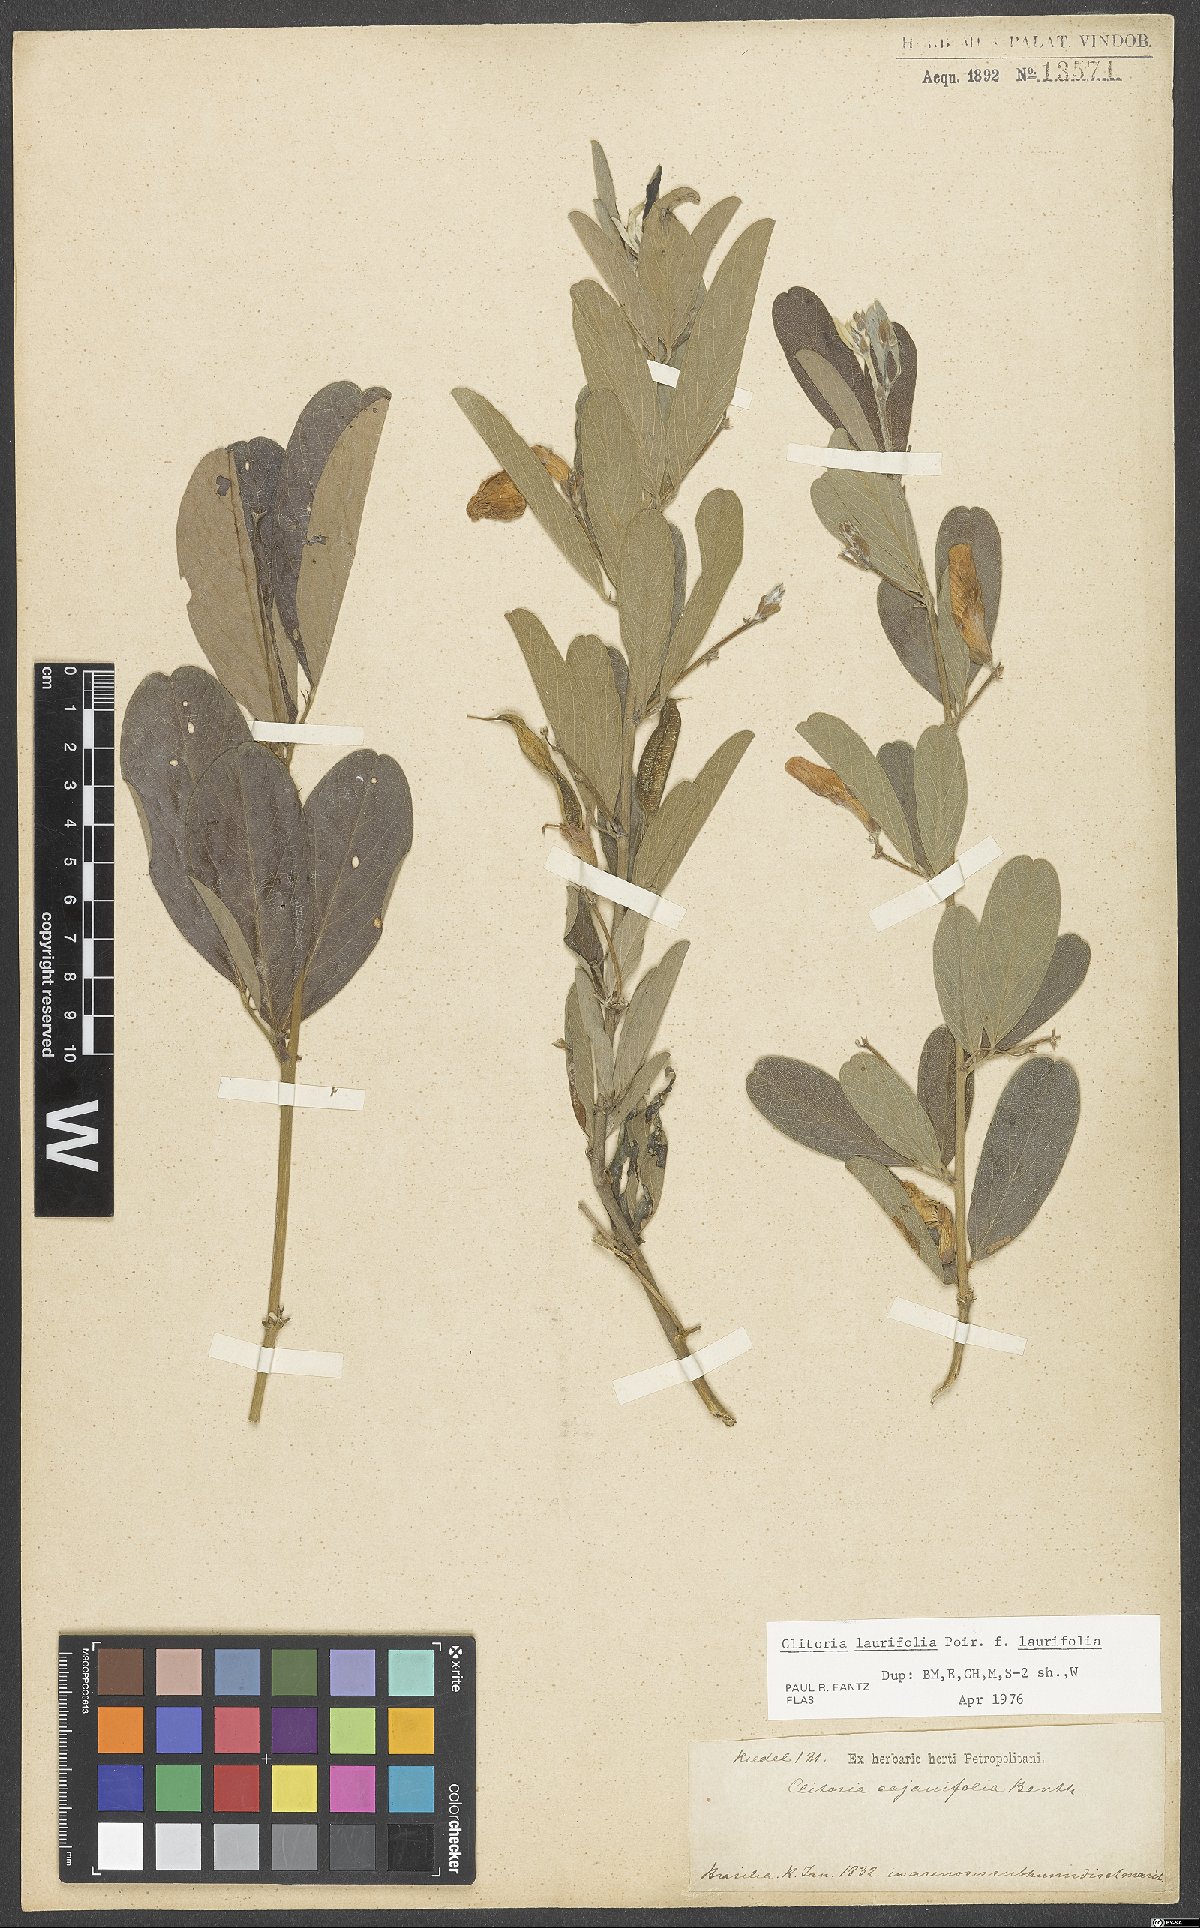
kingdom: Plantae
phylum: Tracheophyta
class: Magnoliopsida
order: Fabales
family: Fabaceae
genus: Clitoria
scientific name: Clitoria laurifolia
